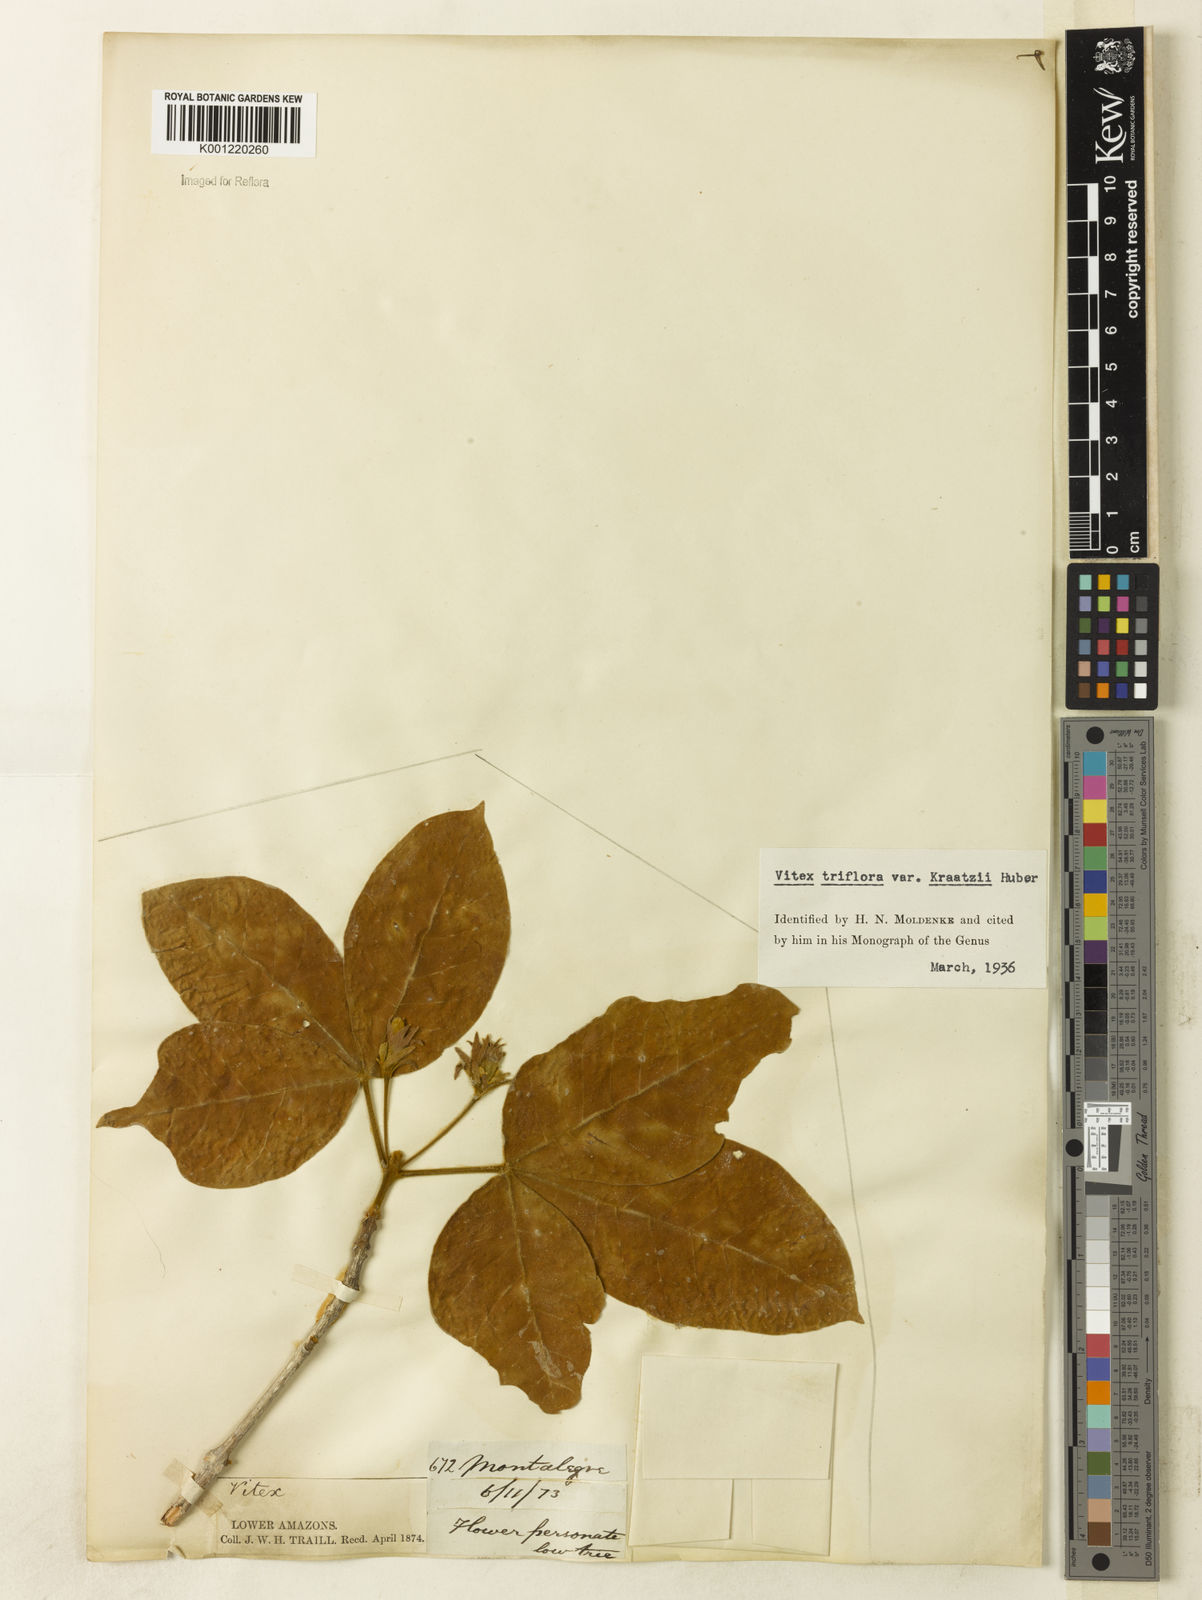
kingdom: Plantae
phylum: Tracheophyta
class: Magnoliopsida
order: Lamiales
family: Lamiaceae
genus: Vitex
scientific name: Vitex triflora
